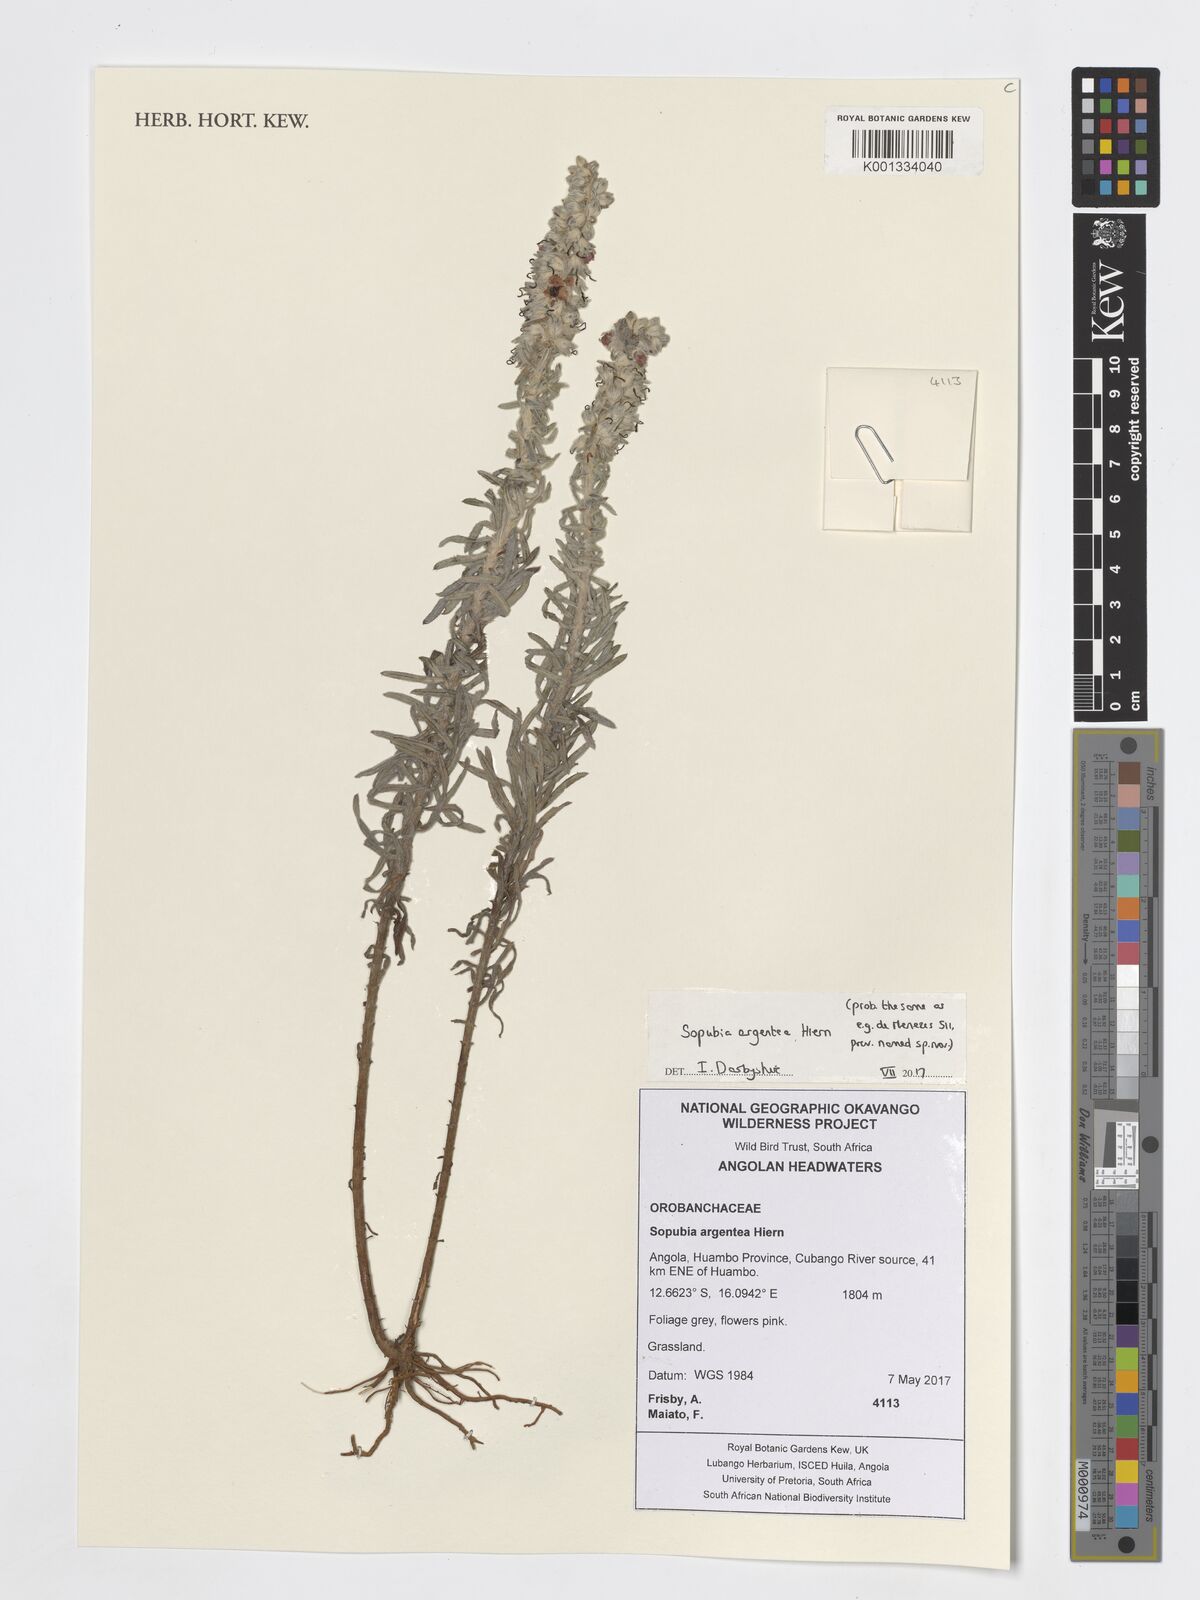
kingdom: Plantae
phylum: Tracheophyta
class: Magnoliopsida
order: Lamiales
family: Orobanchaceae
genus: Sopubia
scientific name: Sopubia argentea
